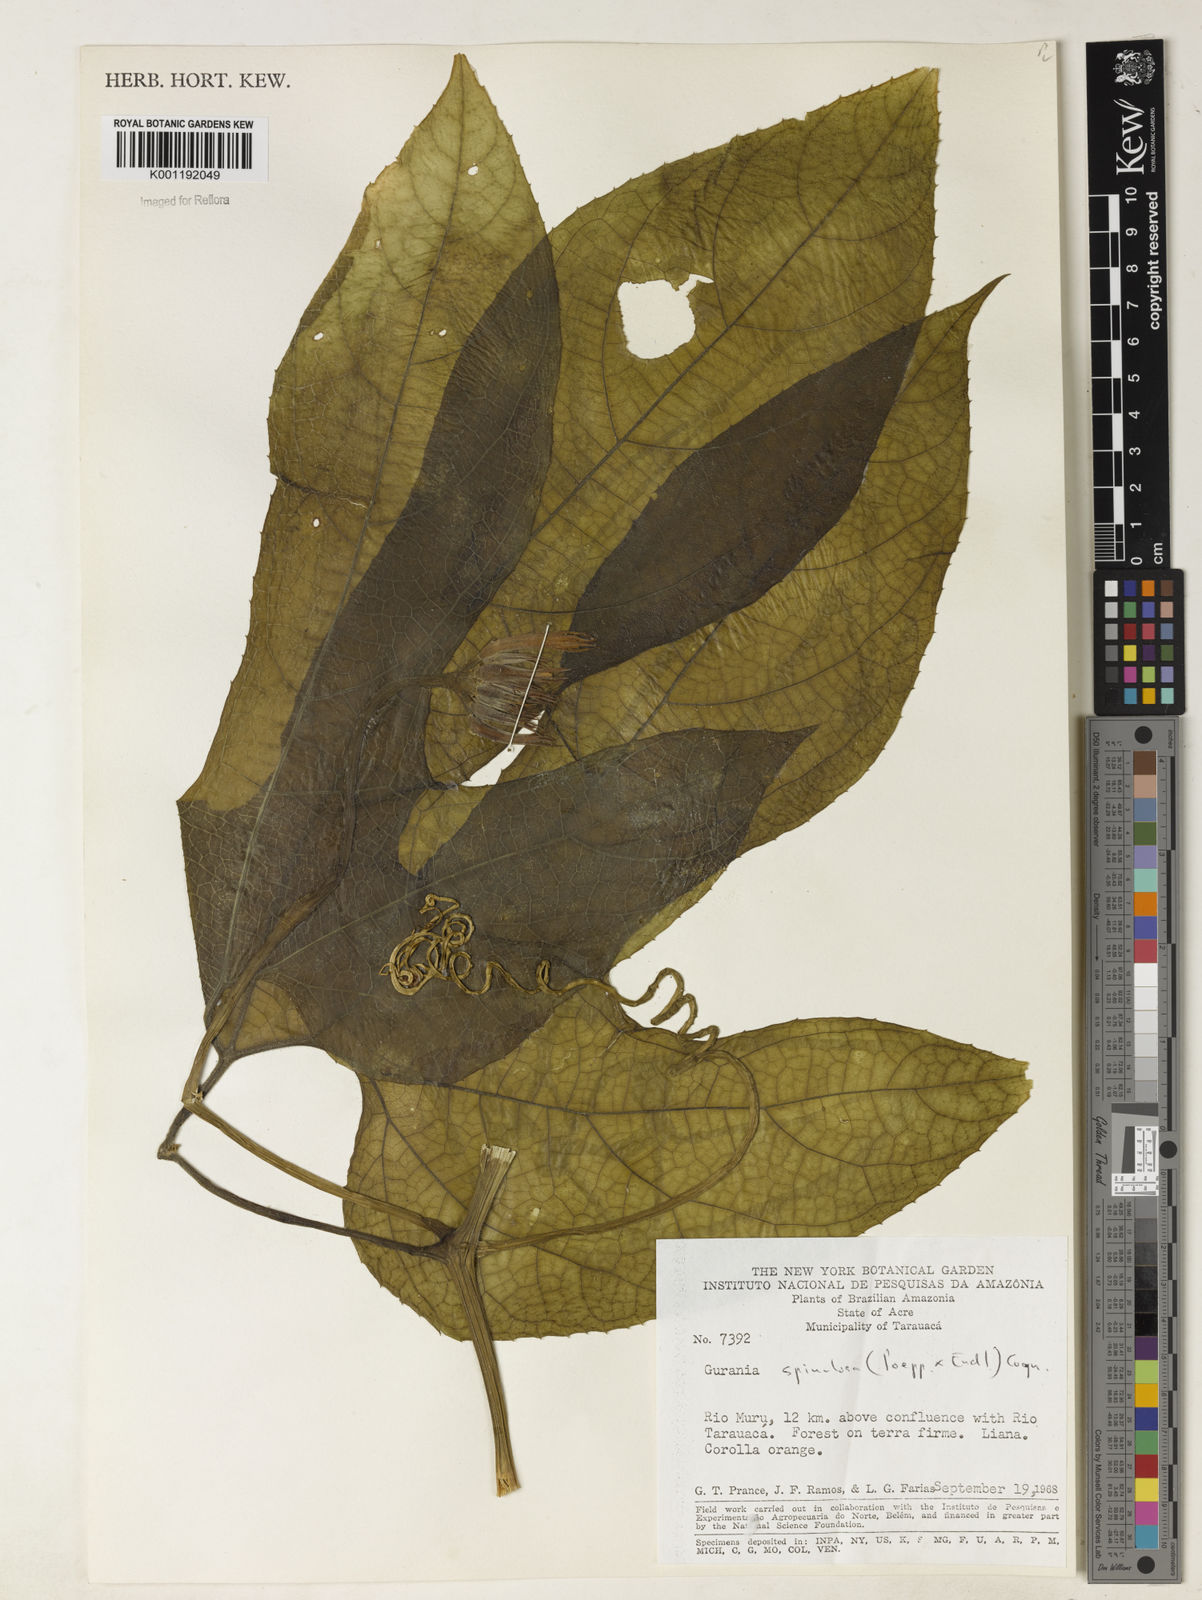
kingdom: Plantae
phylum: Tracheophyta
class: Magnoliopsida
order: Cucurbitales
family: Cucurbitaceae
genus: Gurania
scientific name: Gurania lobata
